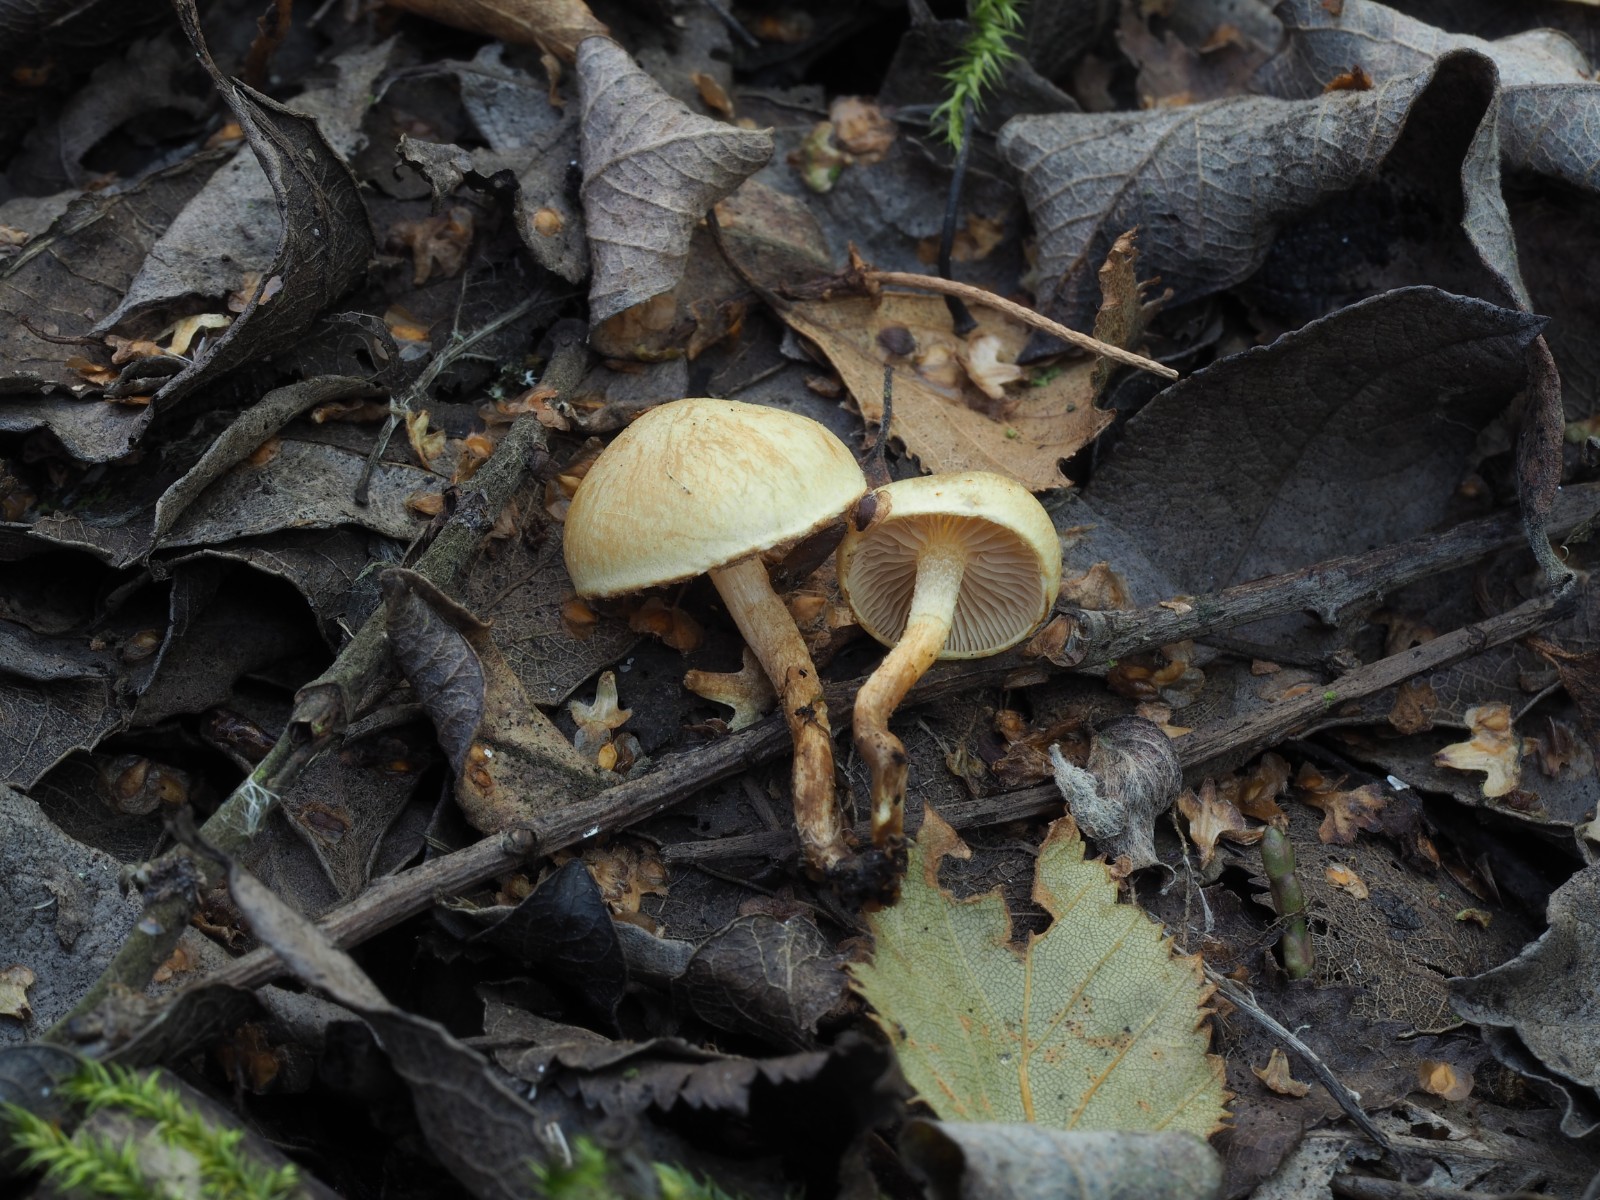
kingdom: Fungi
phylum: Basidiomycota
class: Agaricomycetes
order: Agaricales
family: Strophariaceae
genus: Pholiota
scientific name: Pholiota conissans
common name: pile-skælhat
